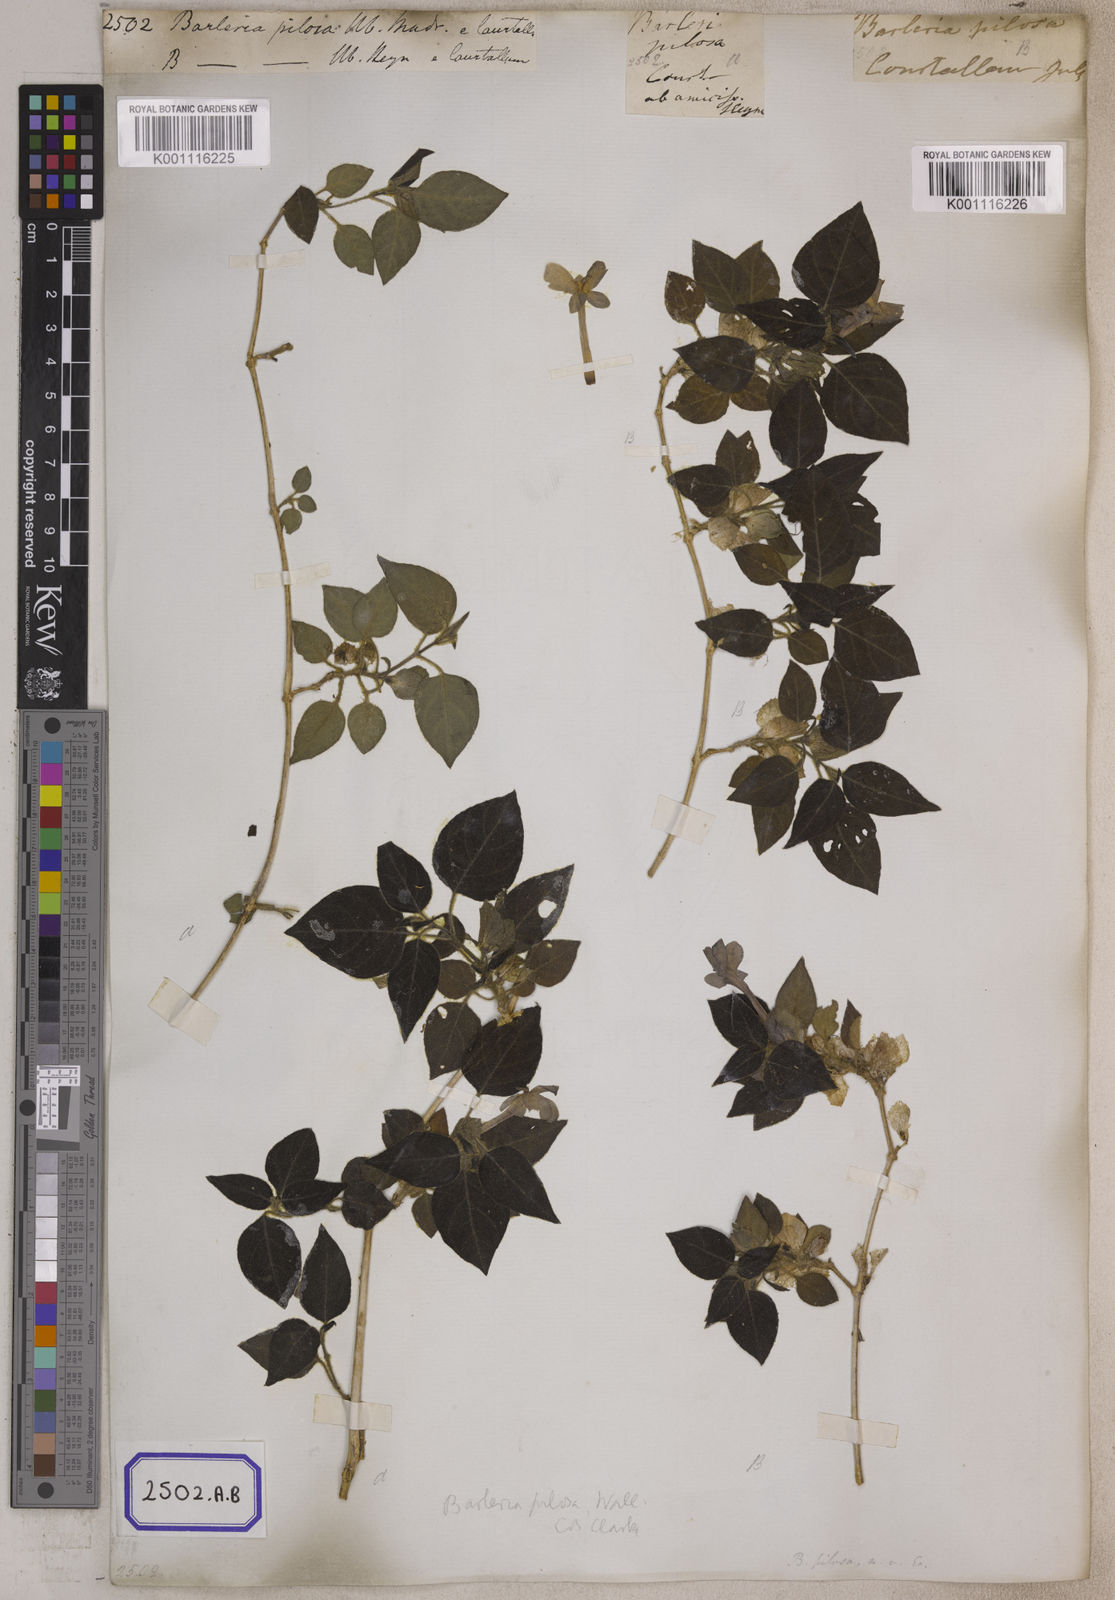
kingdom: Plantae
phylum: Tracheophyta
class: Magnoliopsida
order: Lamiales
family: Acanthaceae
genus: Barleria
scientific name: Barleria pilosa
